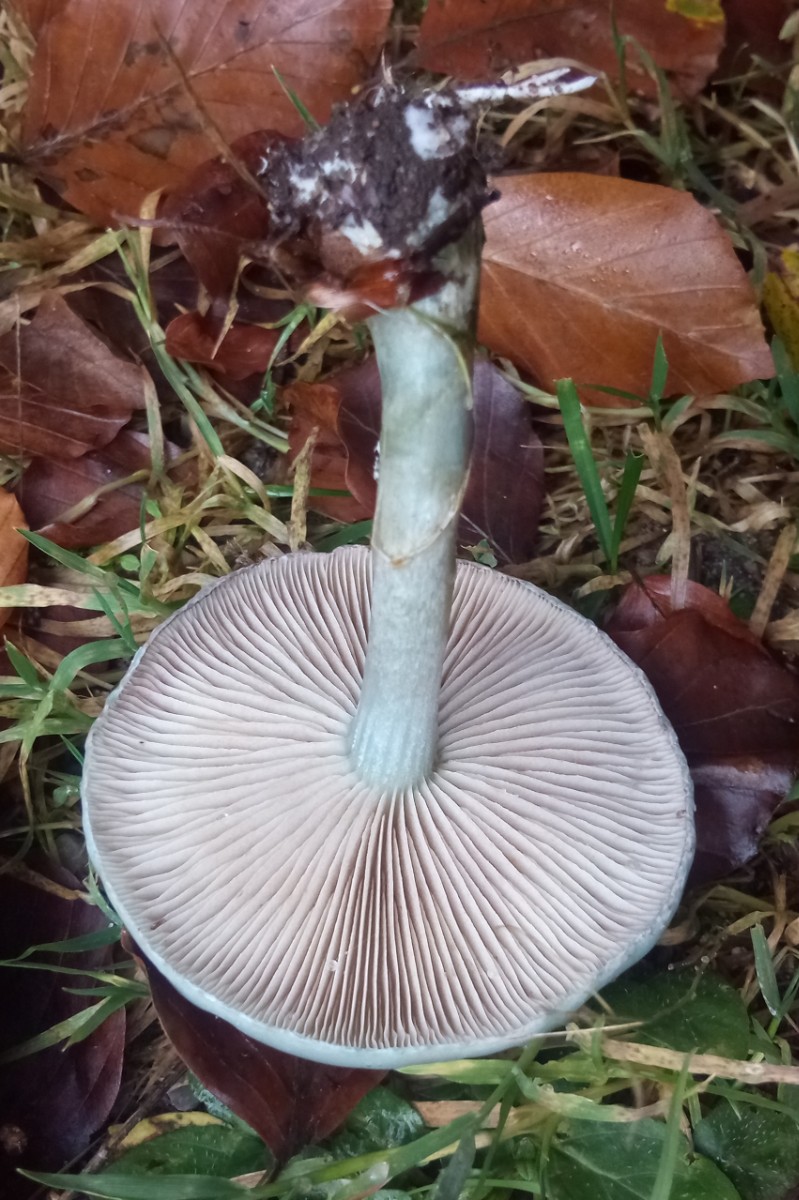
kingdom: Fungi
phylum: Basidiomycota
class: Agaricomycetes
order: Agaricales
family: Strophariaceae
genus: Stropharia
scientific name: Stropharia cyanea
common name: blågrøn bredblad
